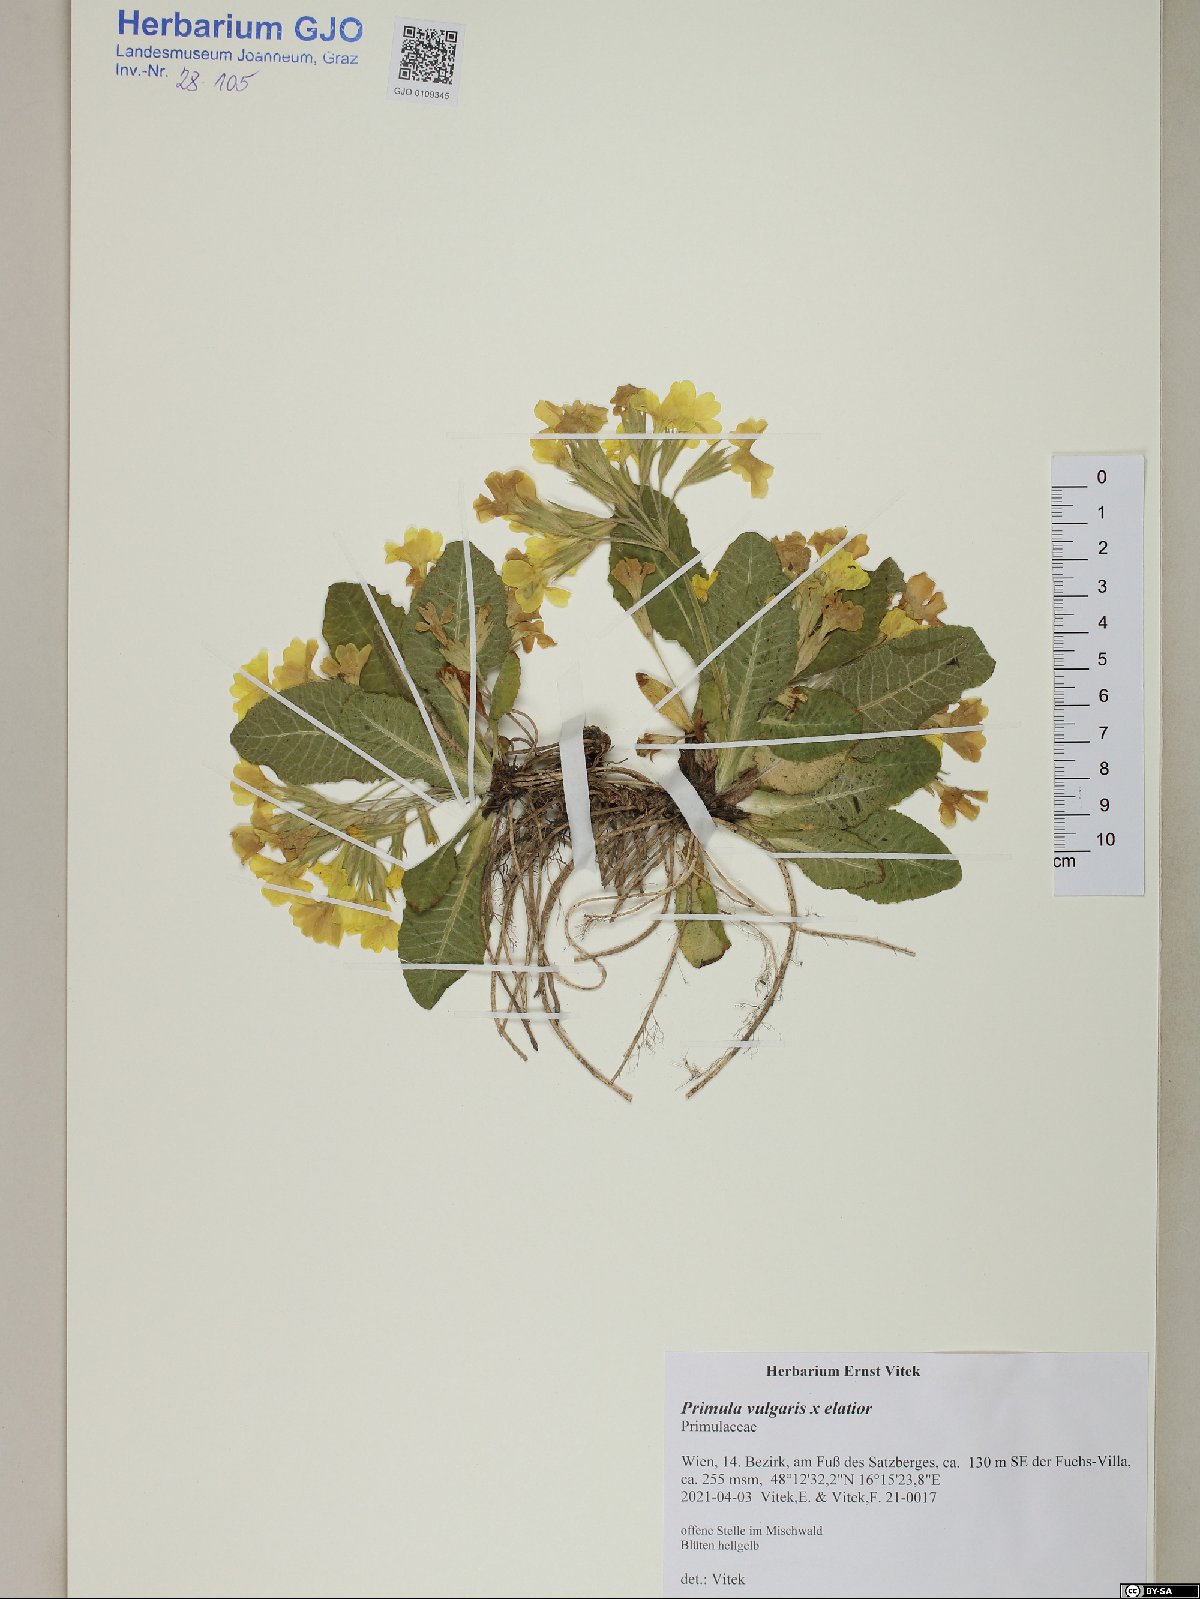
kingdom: Plantae
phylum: Tracheophyta
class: Magnoliopsida
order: Ericales
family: Primulaceae
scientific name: Primulaceae
